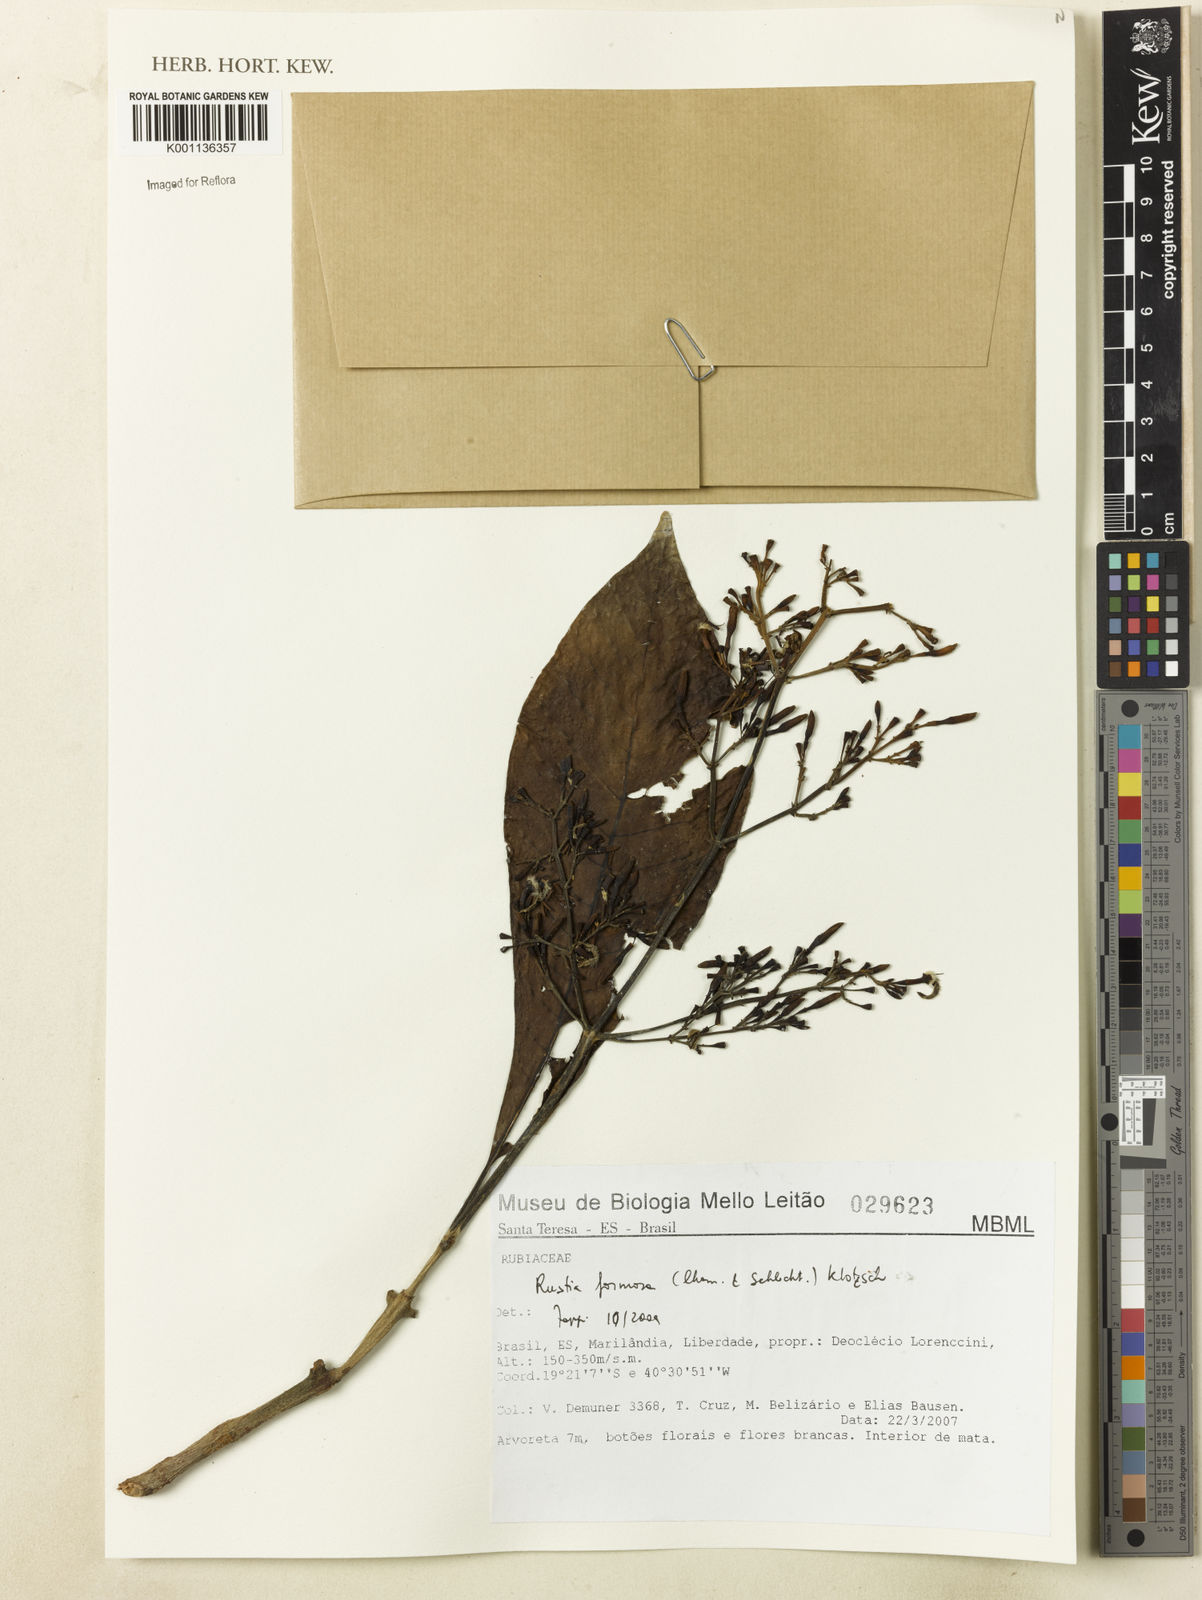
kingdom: Plantae
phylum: Tracheophyta
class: Magnoliopsida
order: Gentianales
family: Rubiaceae
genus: Rustia
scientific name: Rustia formosa
